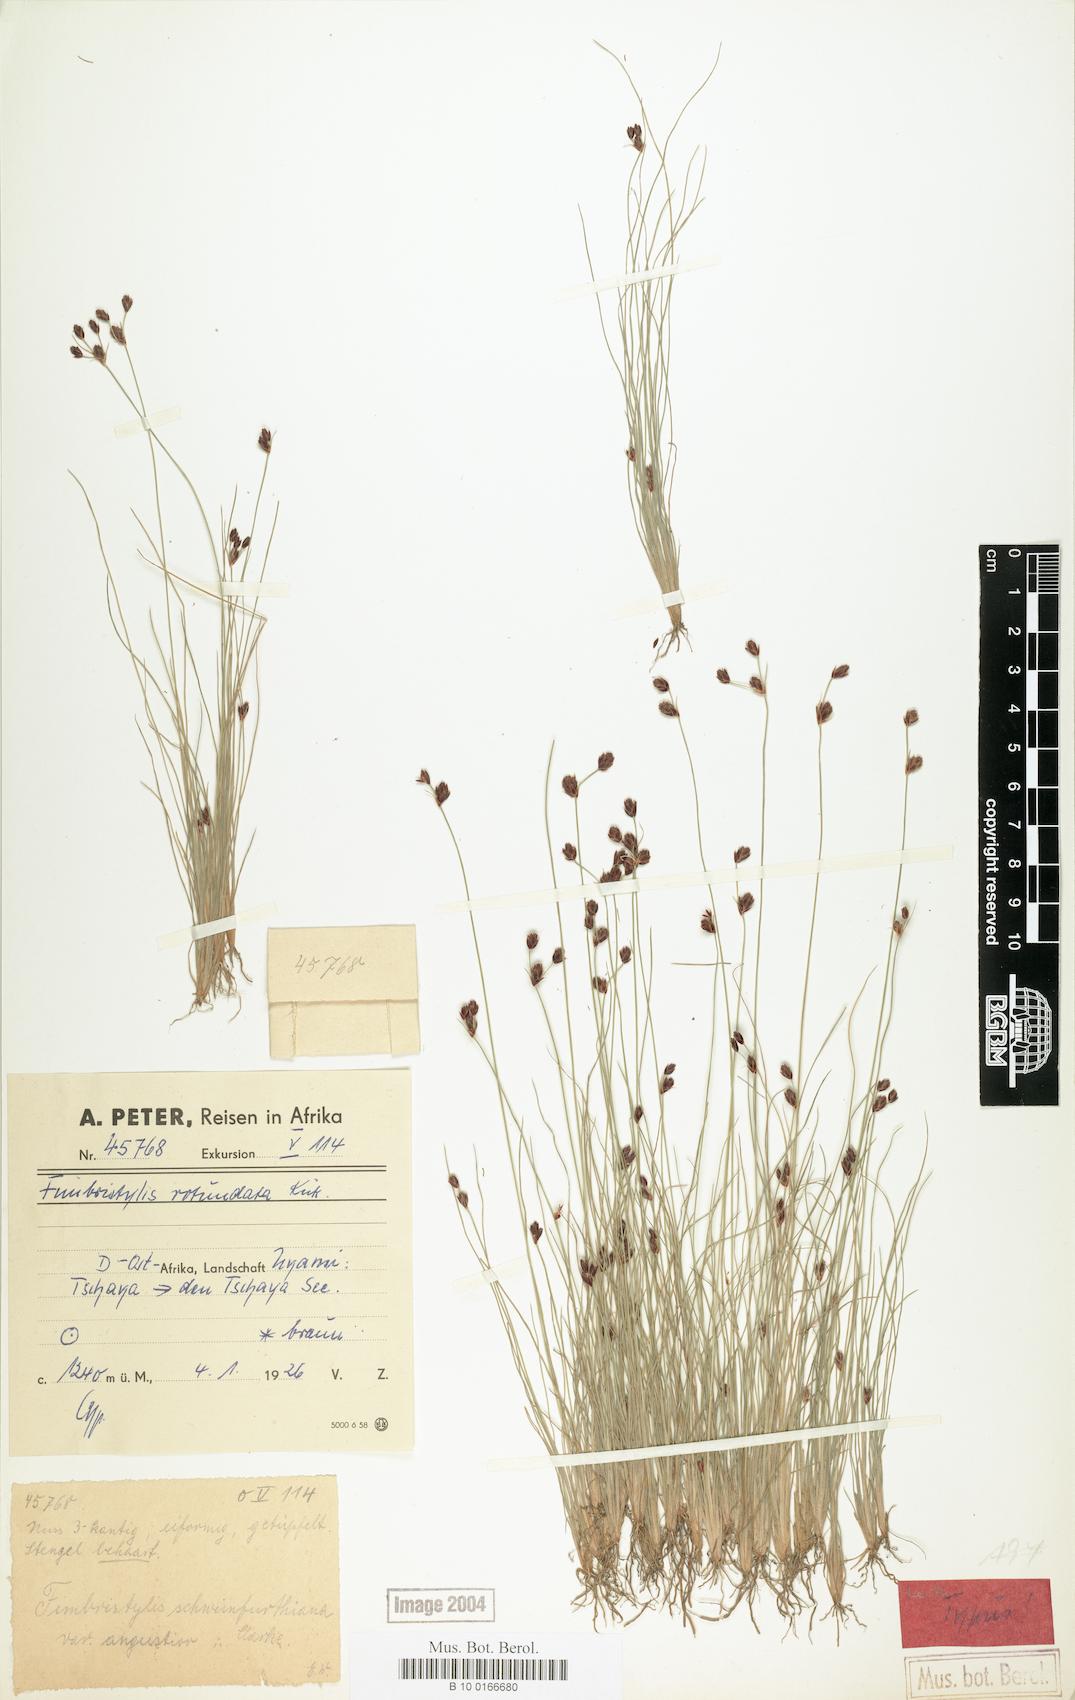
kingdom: Plantae
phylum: Tracheophyta
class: Liliopsida
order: Poales
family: Cyperaceae
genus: Bulbostylis
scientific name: Bulbostylis rotundata
